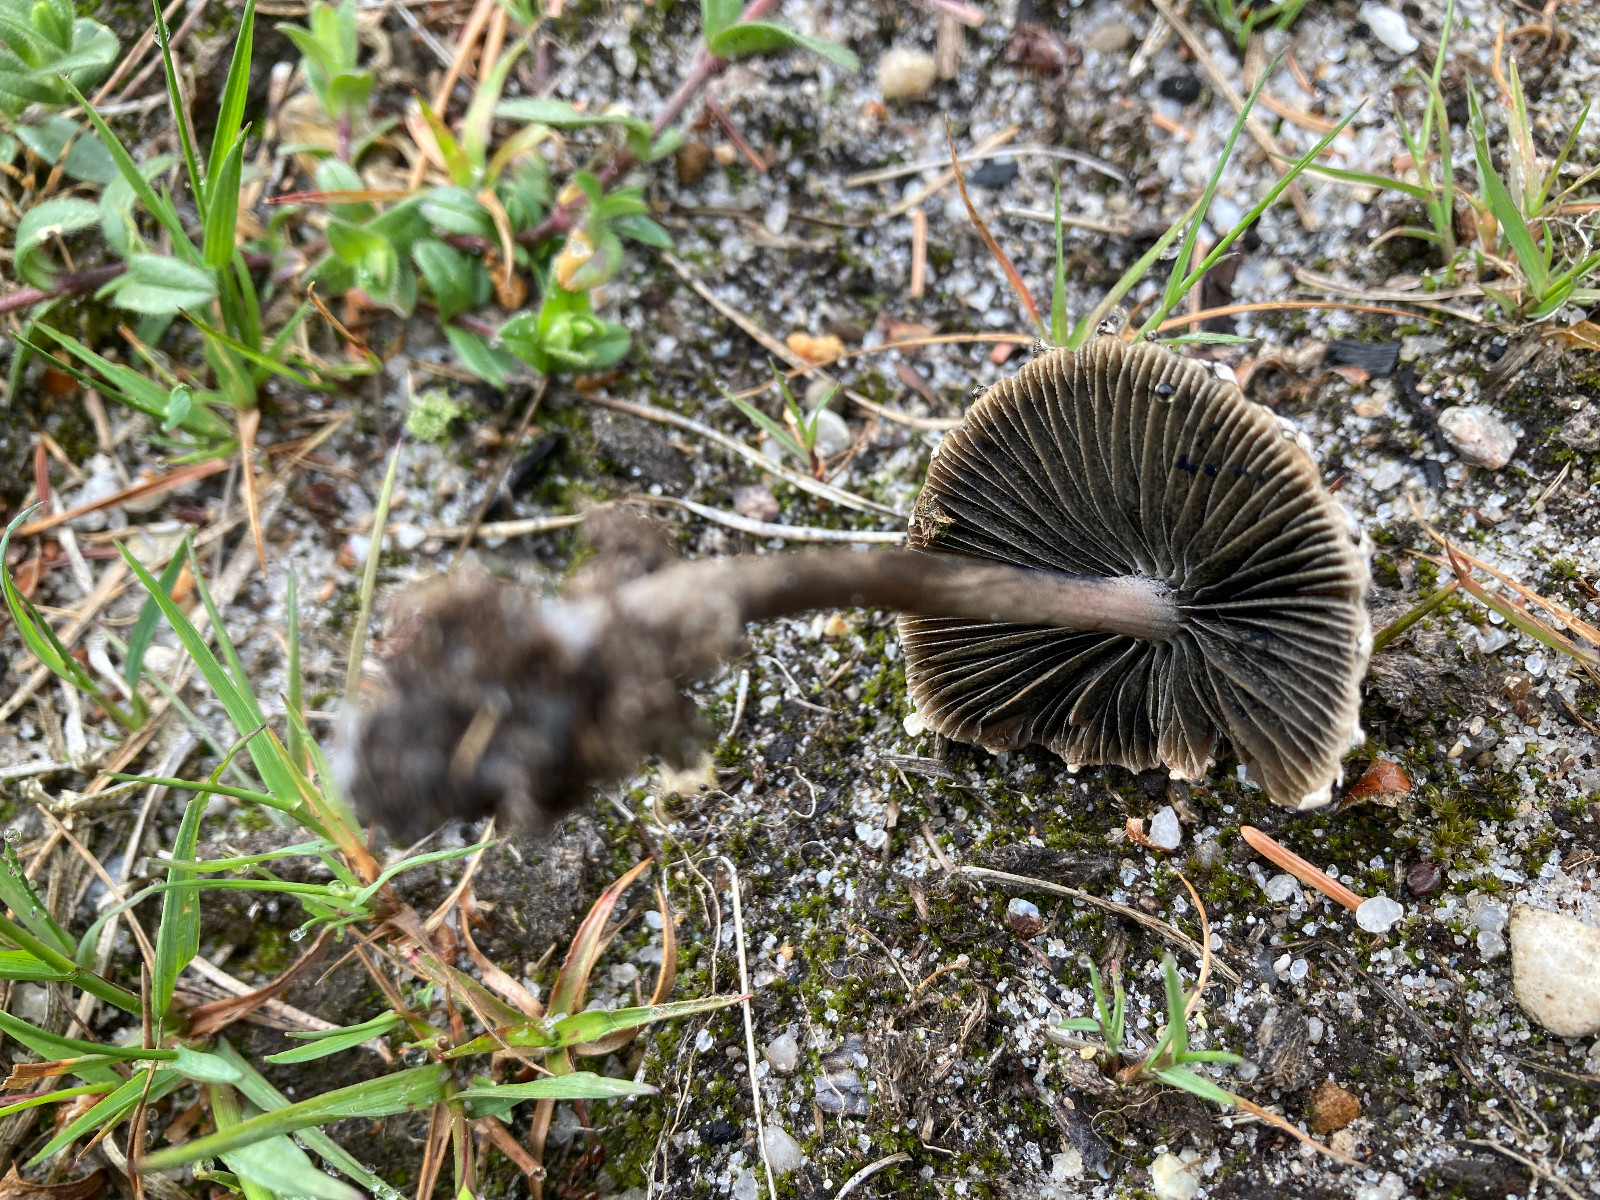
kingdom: Fungi
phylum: Basidiomycota
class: Agaricomycetes
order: Agaricales
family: Bolbitiaceae
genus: Panaeolus
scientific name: Panaeolus papilionaceus
